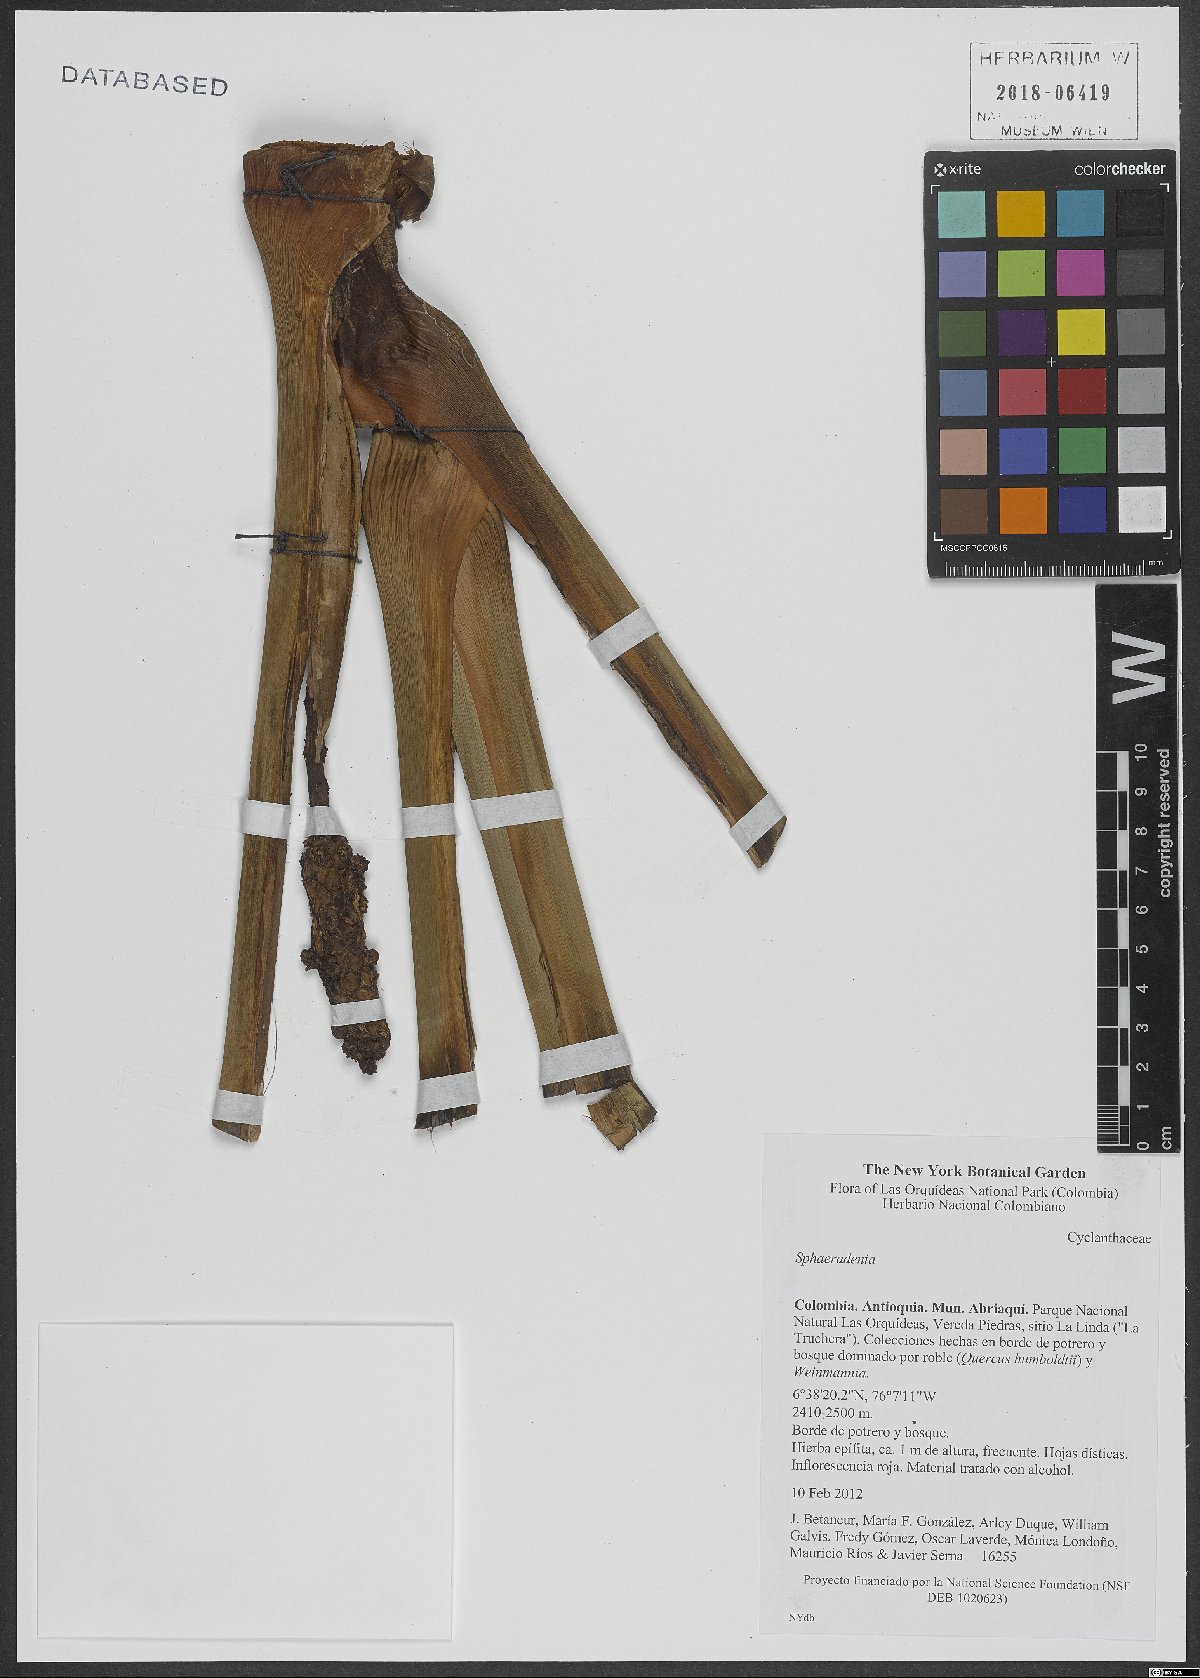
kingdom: Plantae
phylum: Tracheophyta
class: Liliopsida
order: Pandanales
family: Cyclanthaceae
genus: Sphaeradenia
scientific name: Sphaeradenia
